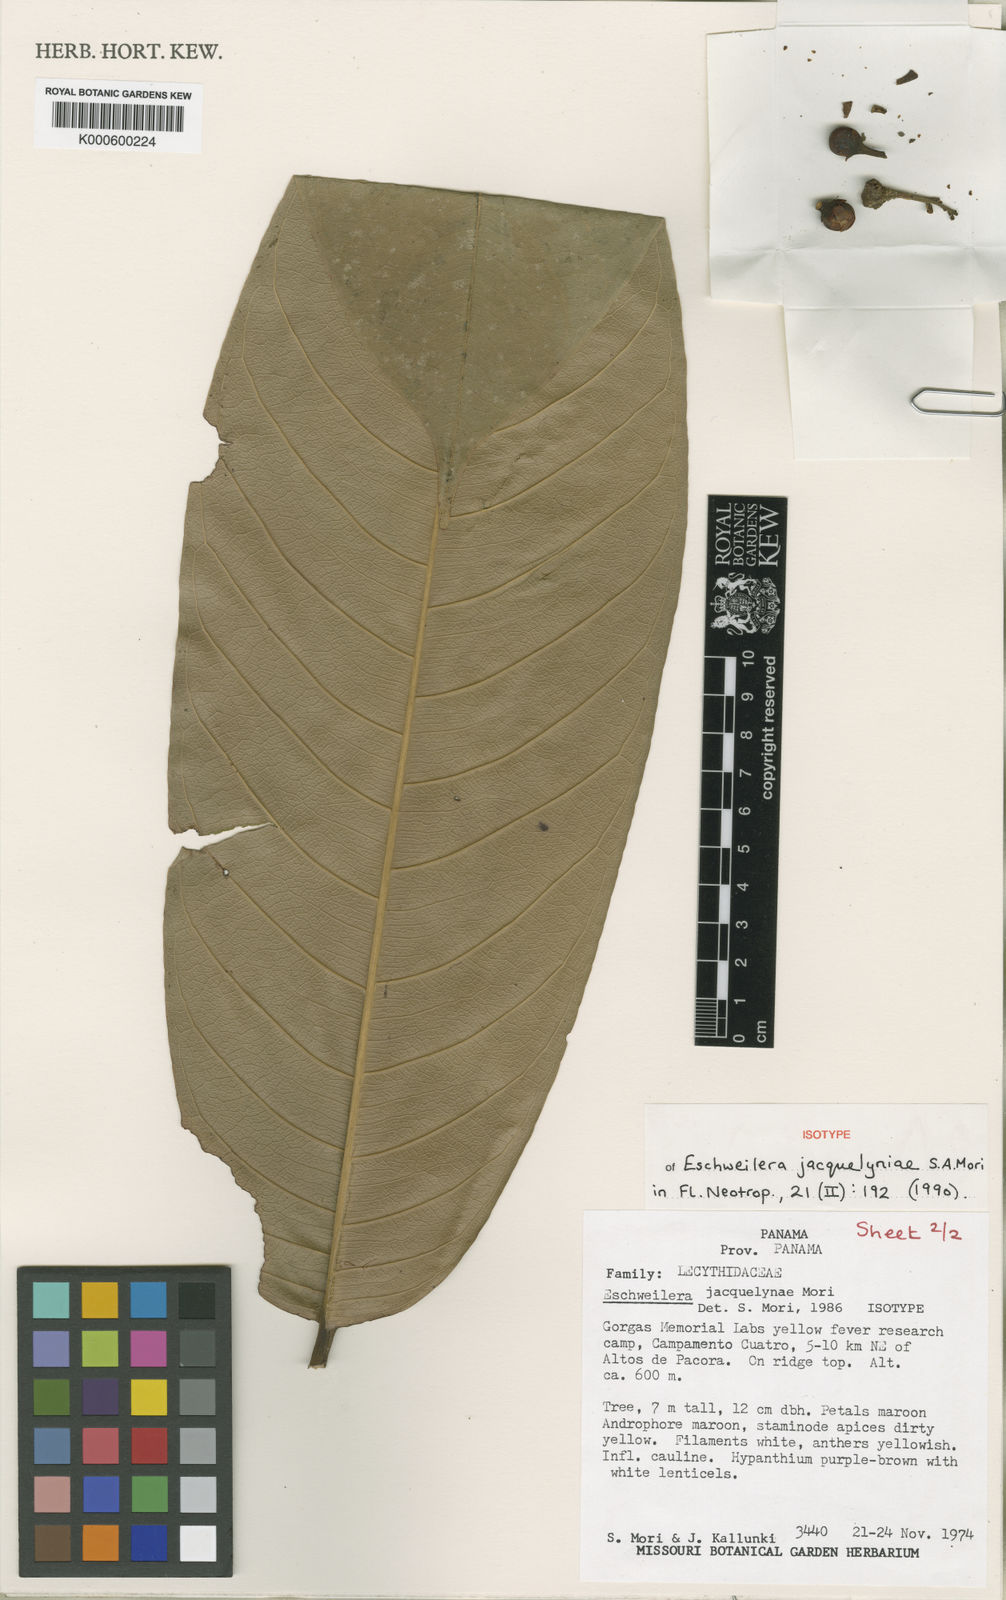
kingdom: Plantae
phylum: Tracheophyta
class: Magnoliopsida
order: Ericales
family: Lecythidaceae
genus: Eschweilera
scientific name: Eschweilera jacquelyniae
